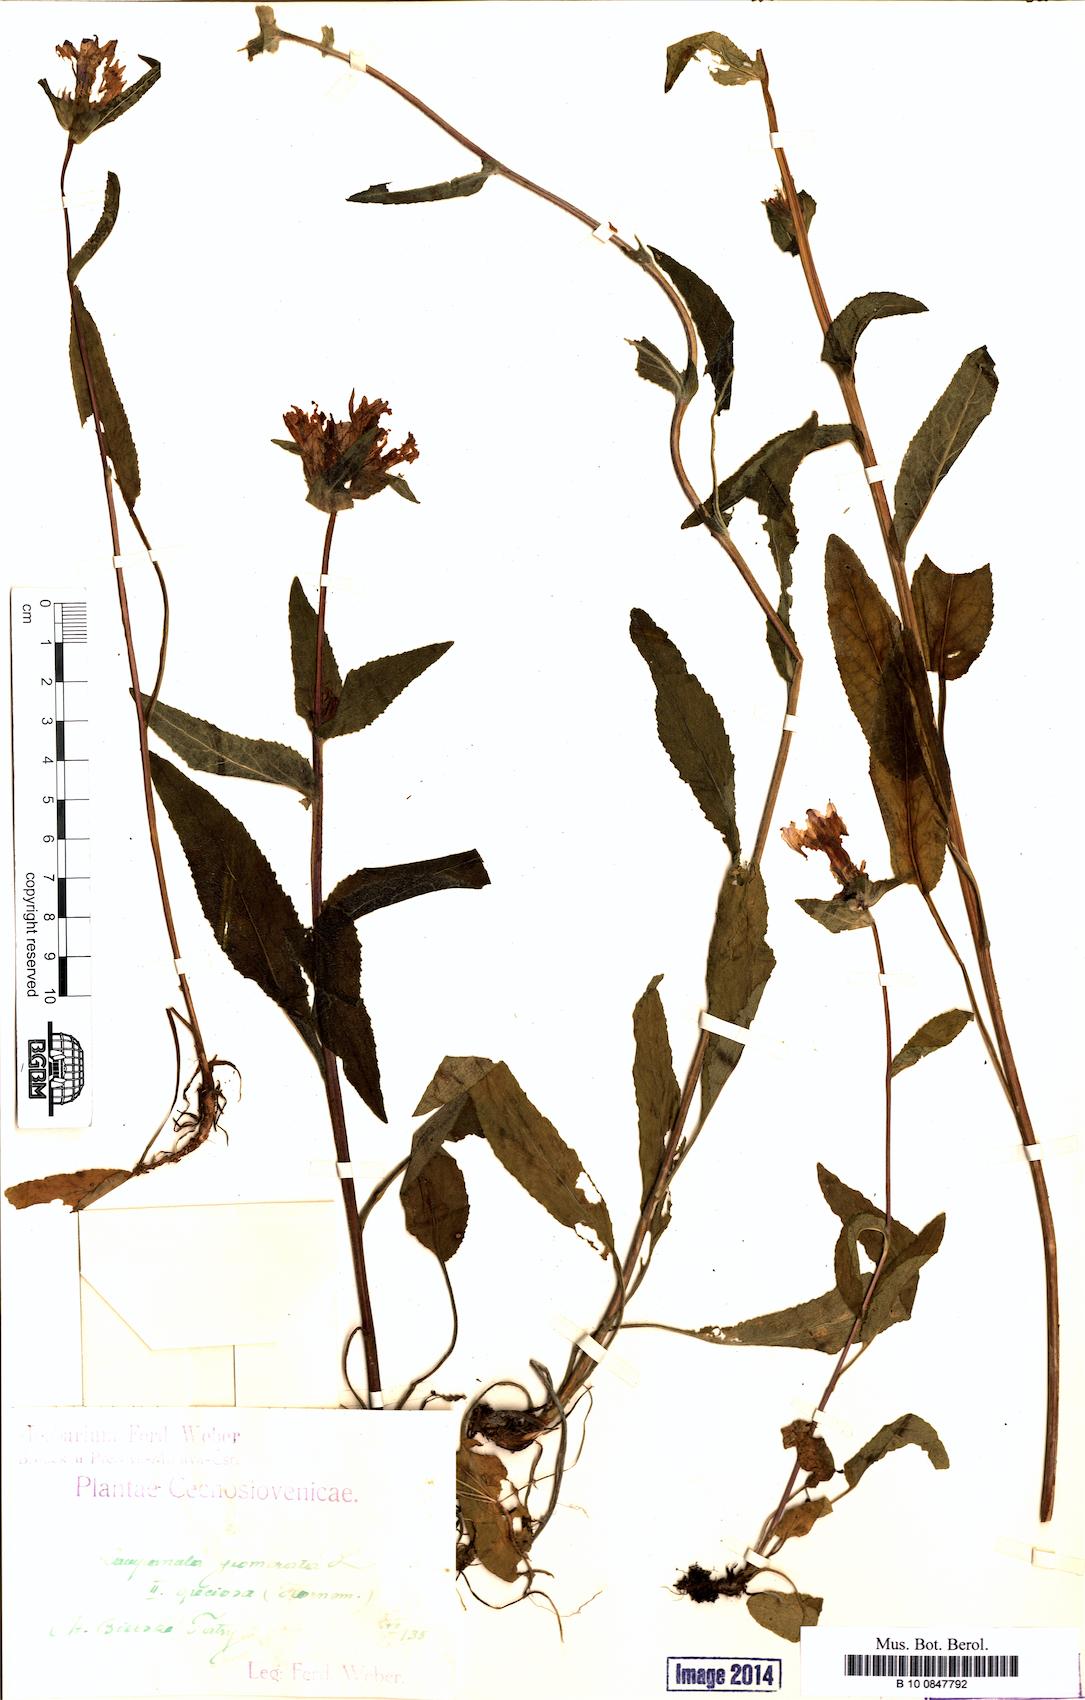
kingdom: Plantae
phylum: Tracheophyta
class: Magnoliopsida
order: Asterales
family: Campanulaceae
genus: Campanula
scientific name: Campanula glomerata
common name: Clustered bellflower
